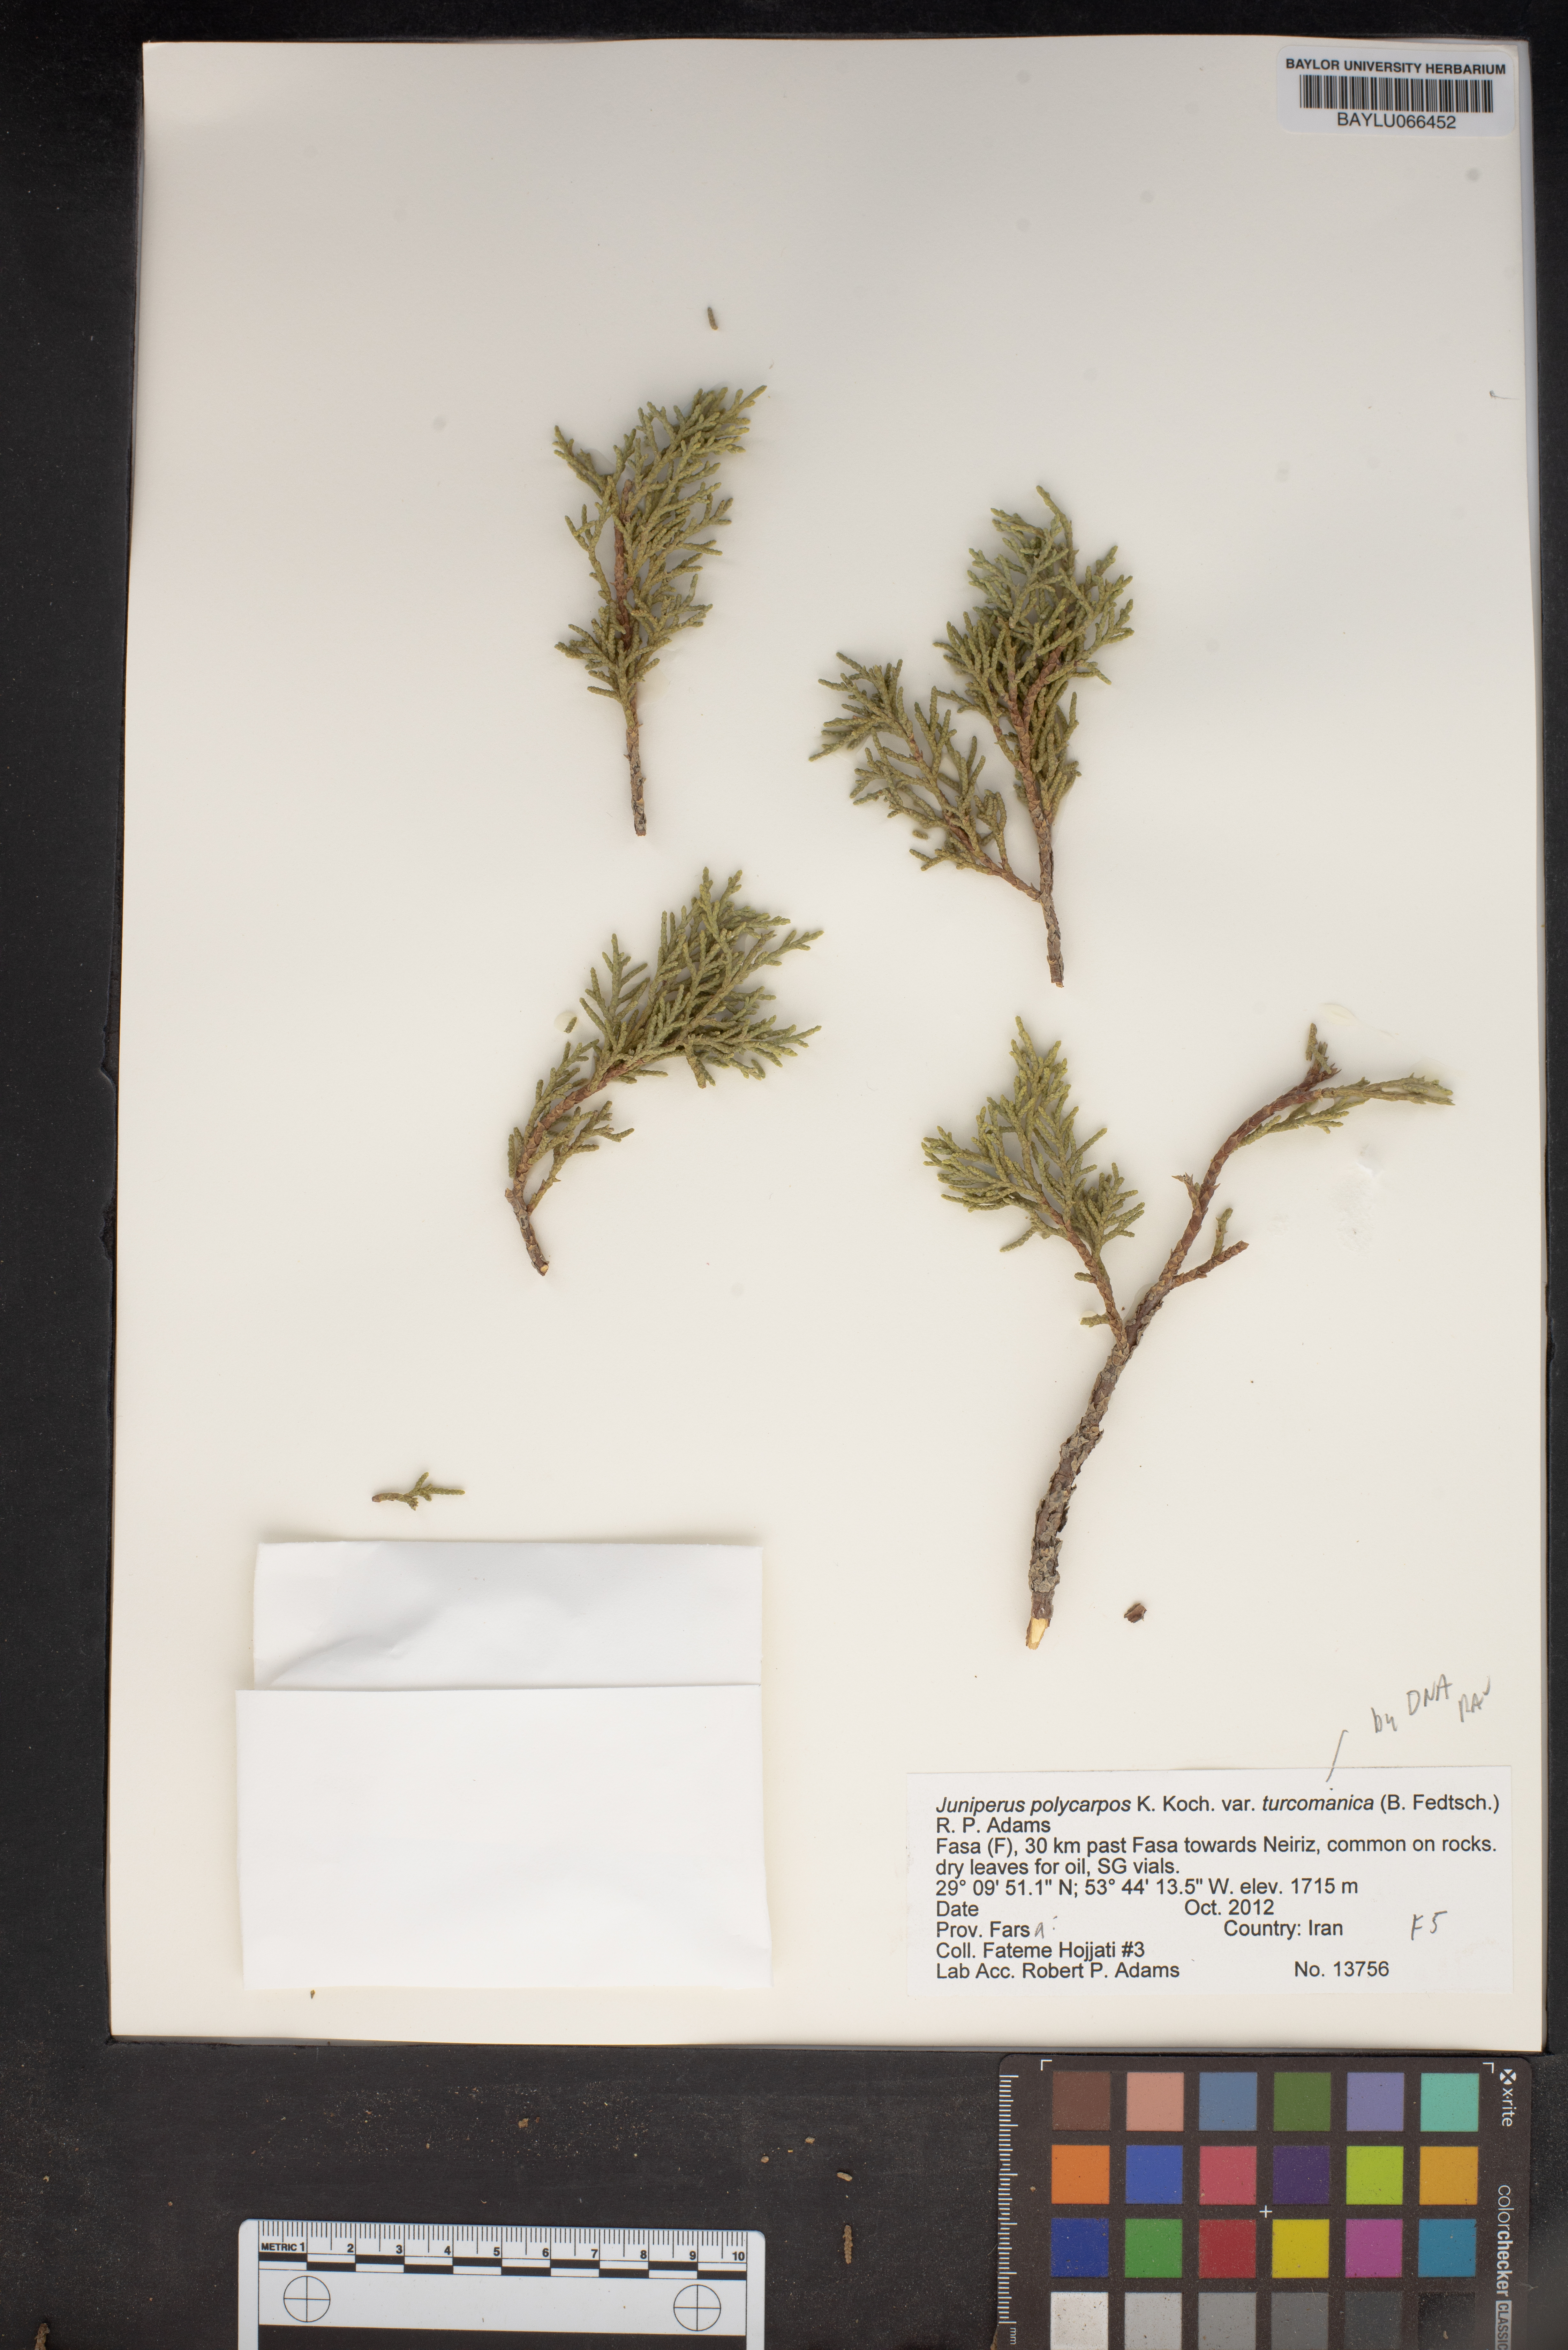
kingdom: Plantae
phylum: Tracheophyta
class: Pinopsida
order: Pinales
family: Cupressaceae
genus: Juniperus
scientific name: Juniperus excelsa
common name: Crimean juniper
